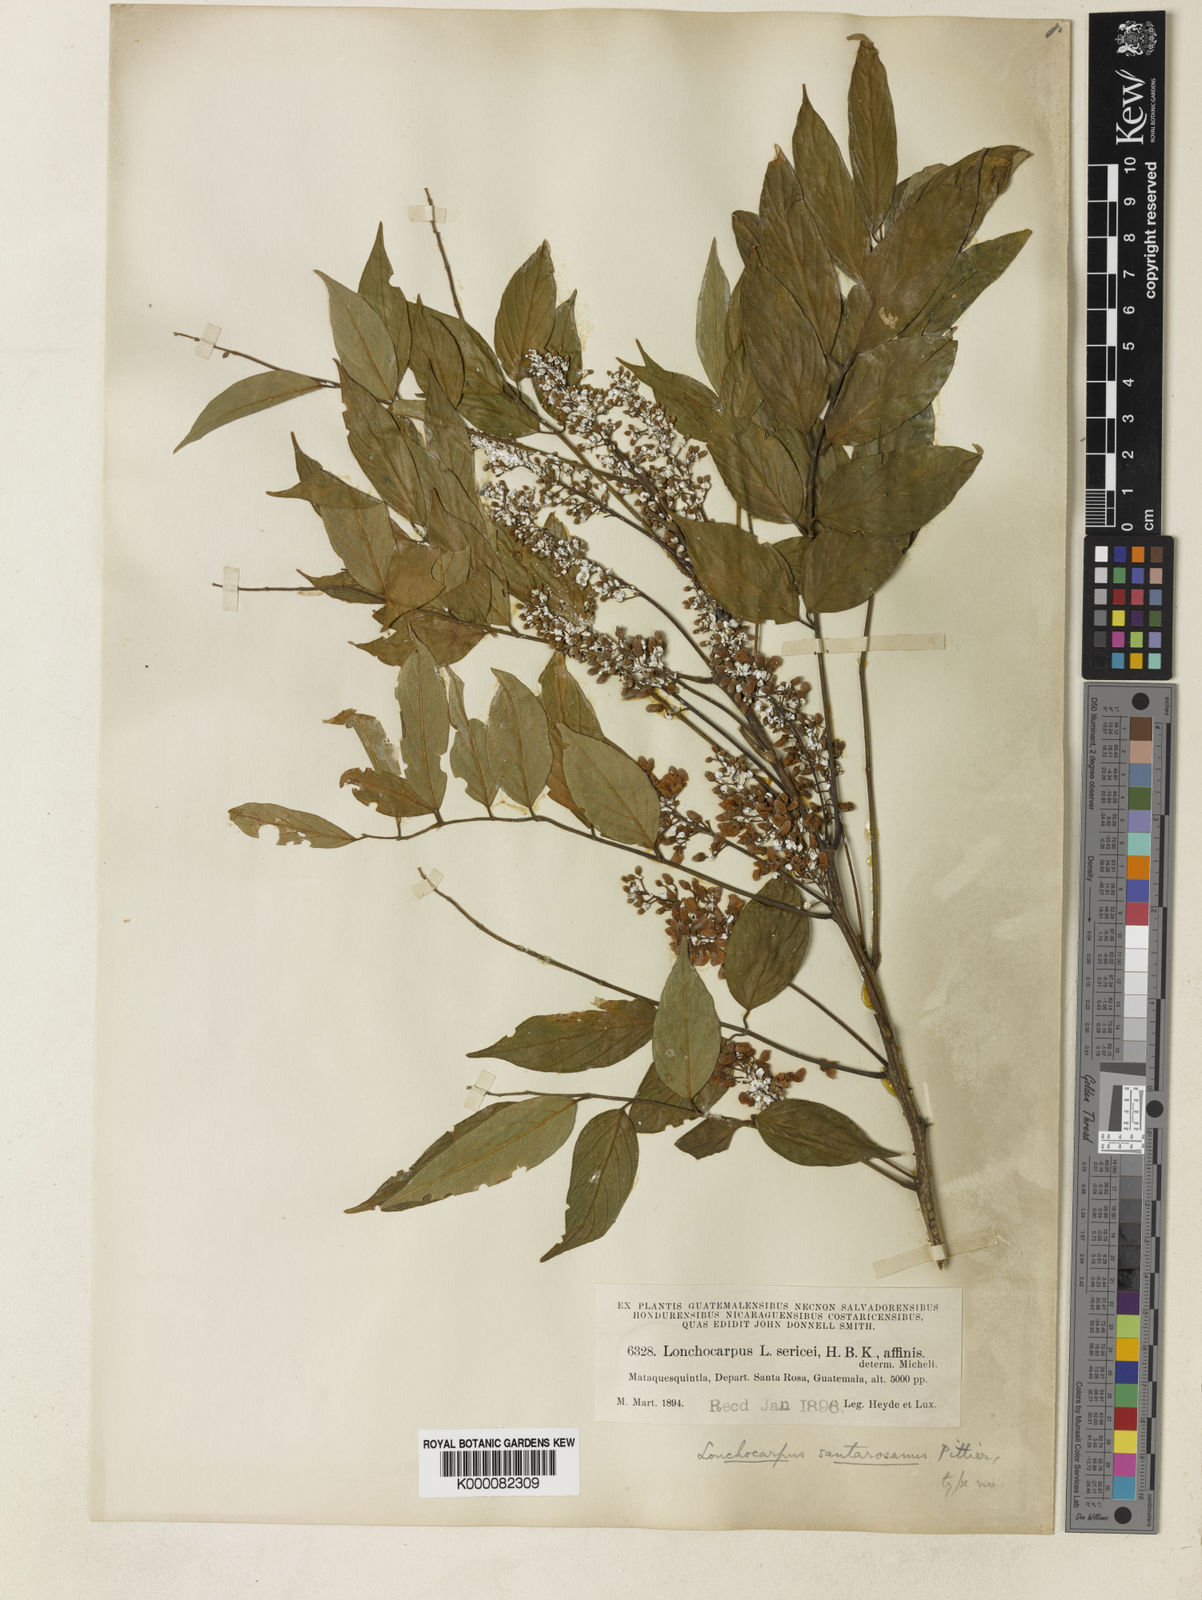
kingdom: Plantae
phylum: Tracheophyta
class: Magnoliopsida
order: Fabales
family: Fabaceae
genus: Lonchocarpus
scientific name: Lonchocarpus
